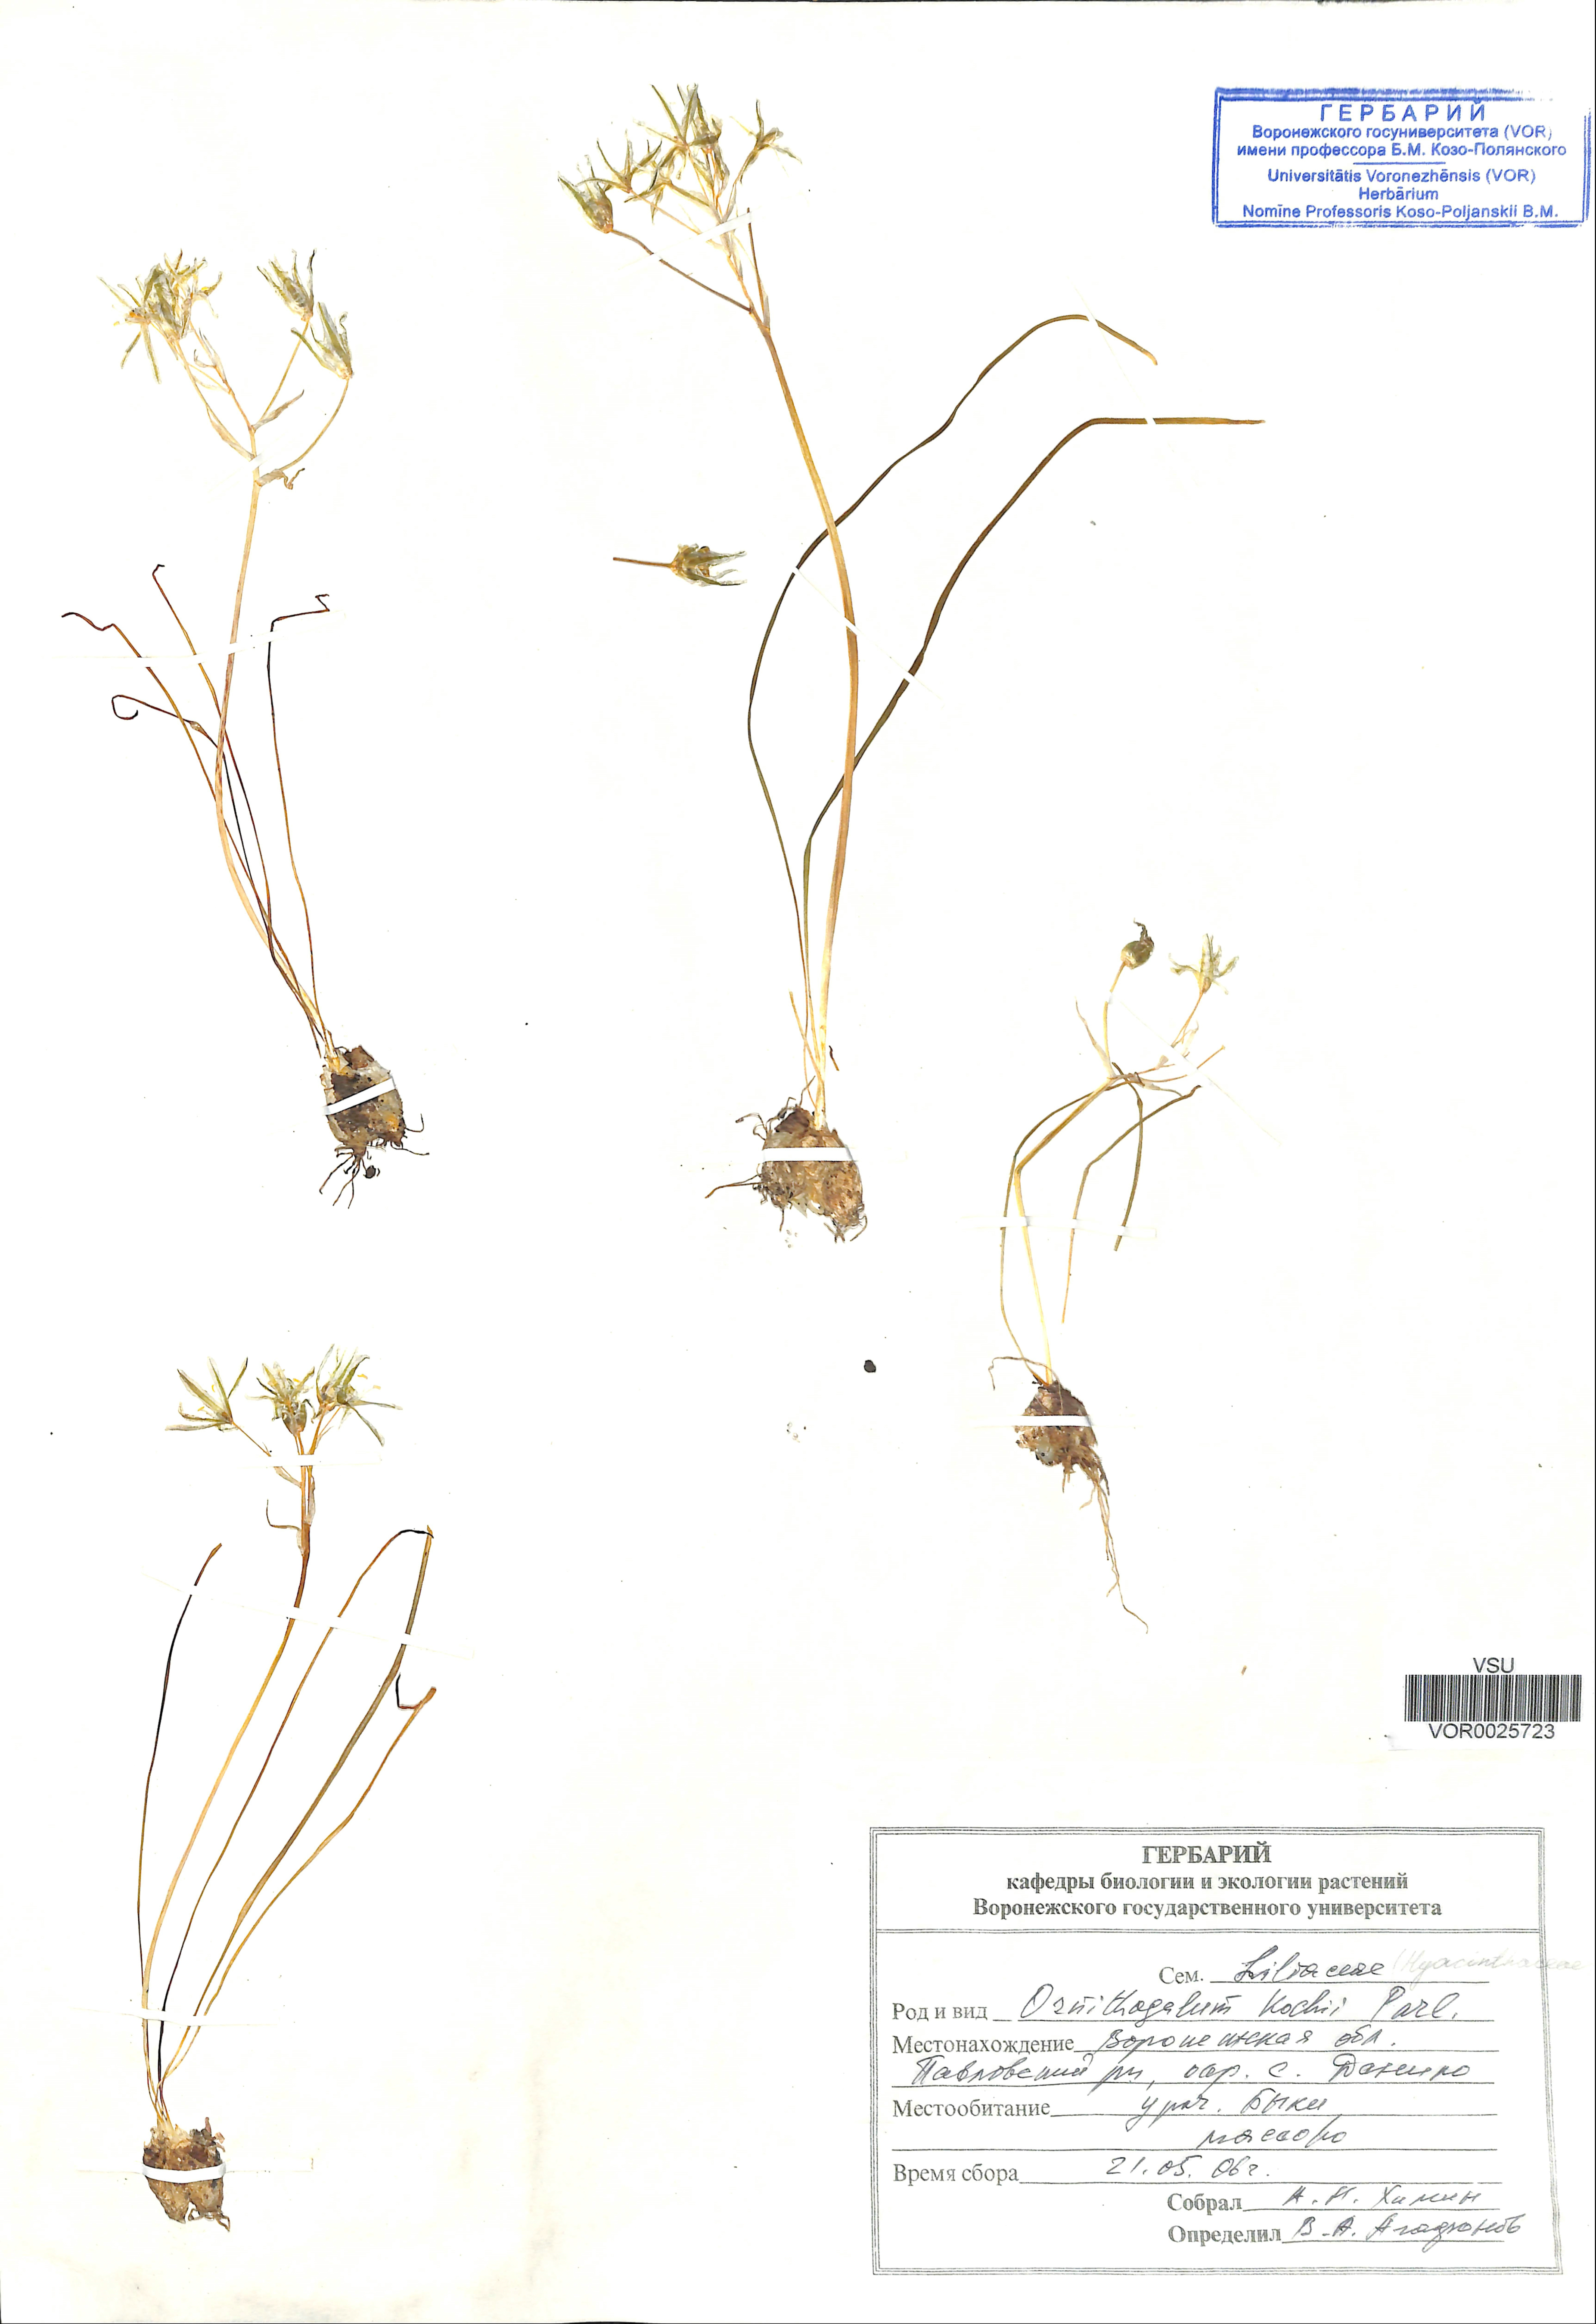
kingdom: Plantae
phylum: Tracheophyta
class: Liliopsida
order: Asparagales
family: Asparagaceae
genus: Ornithogalum
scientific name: Ornithogalum orthophyllum
